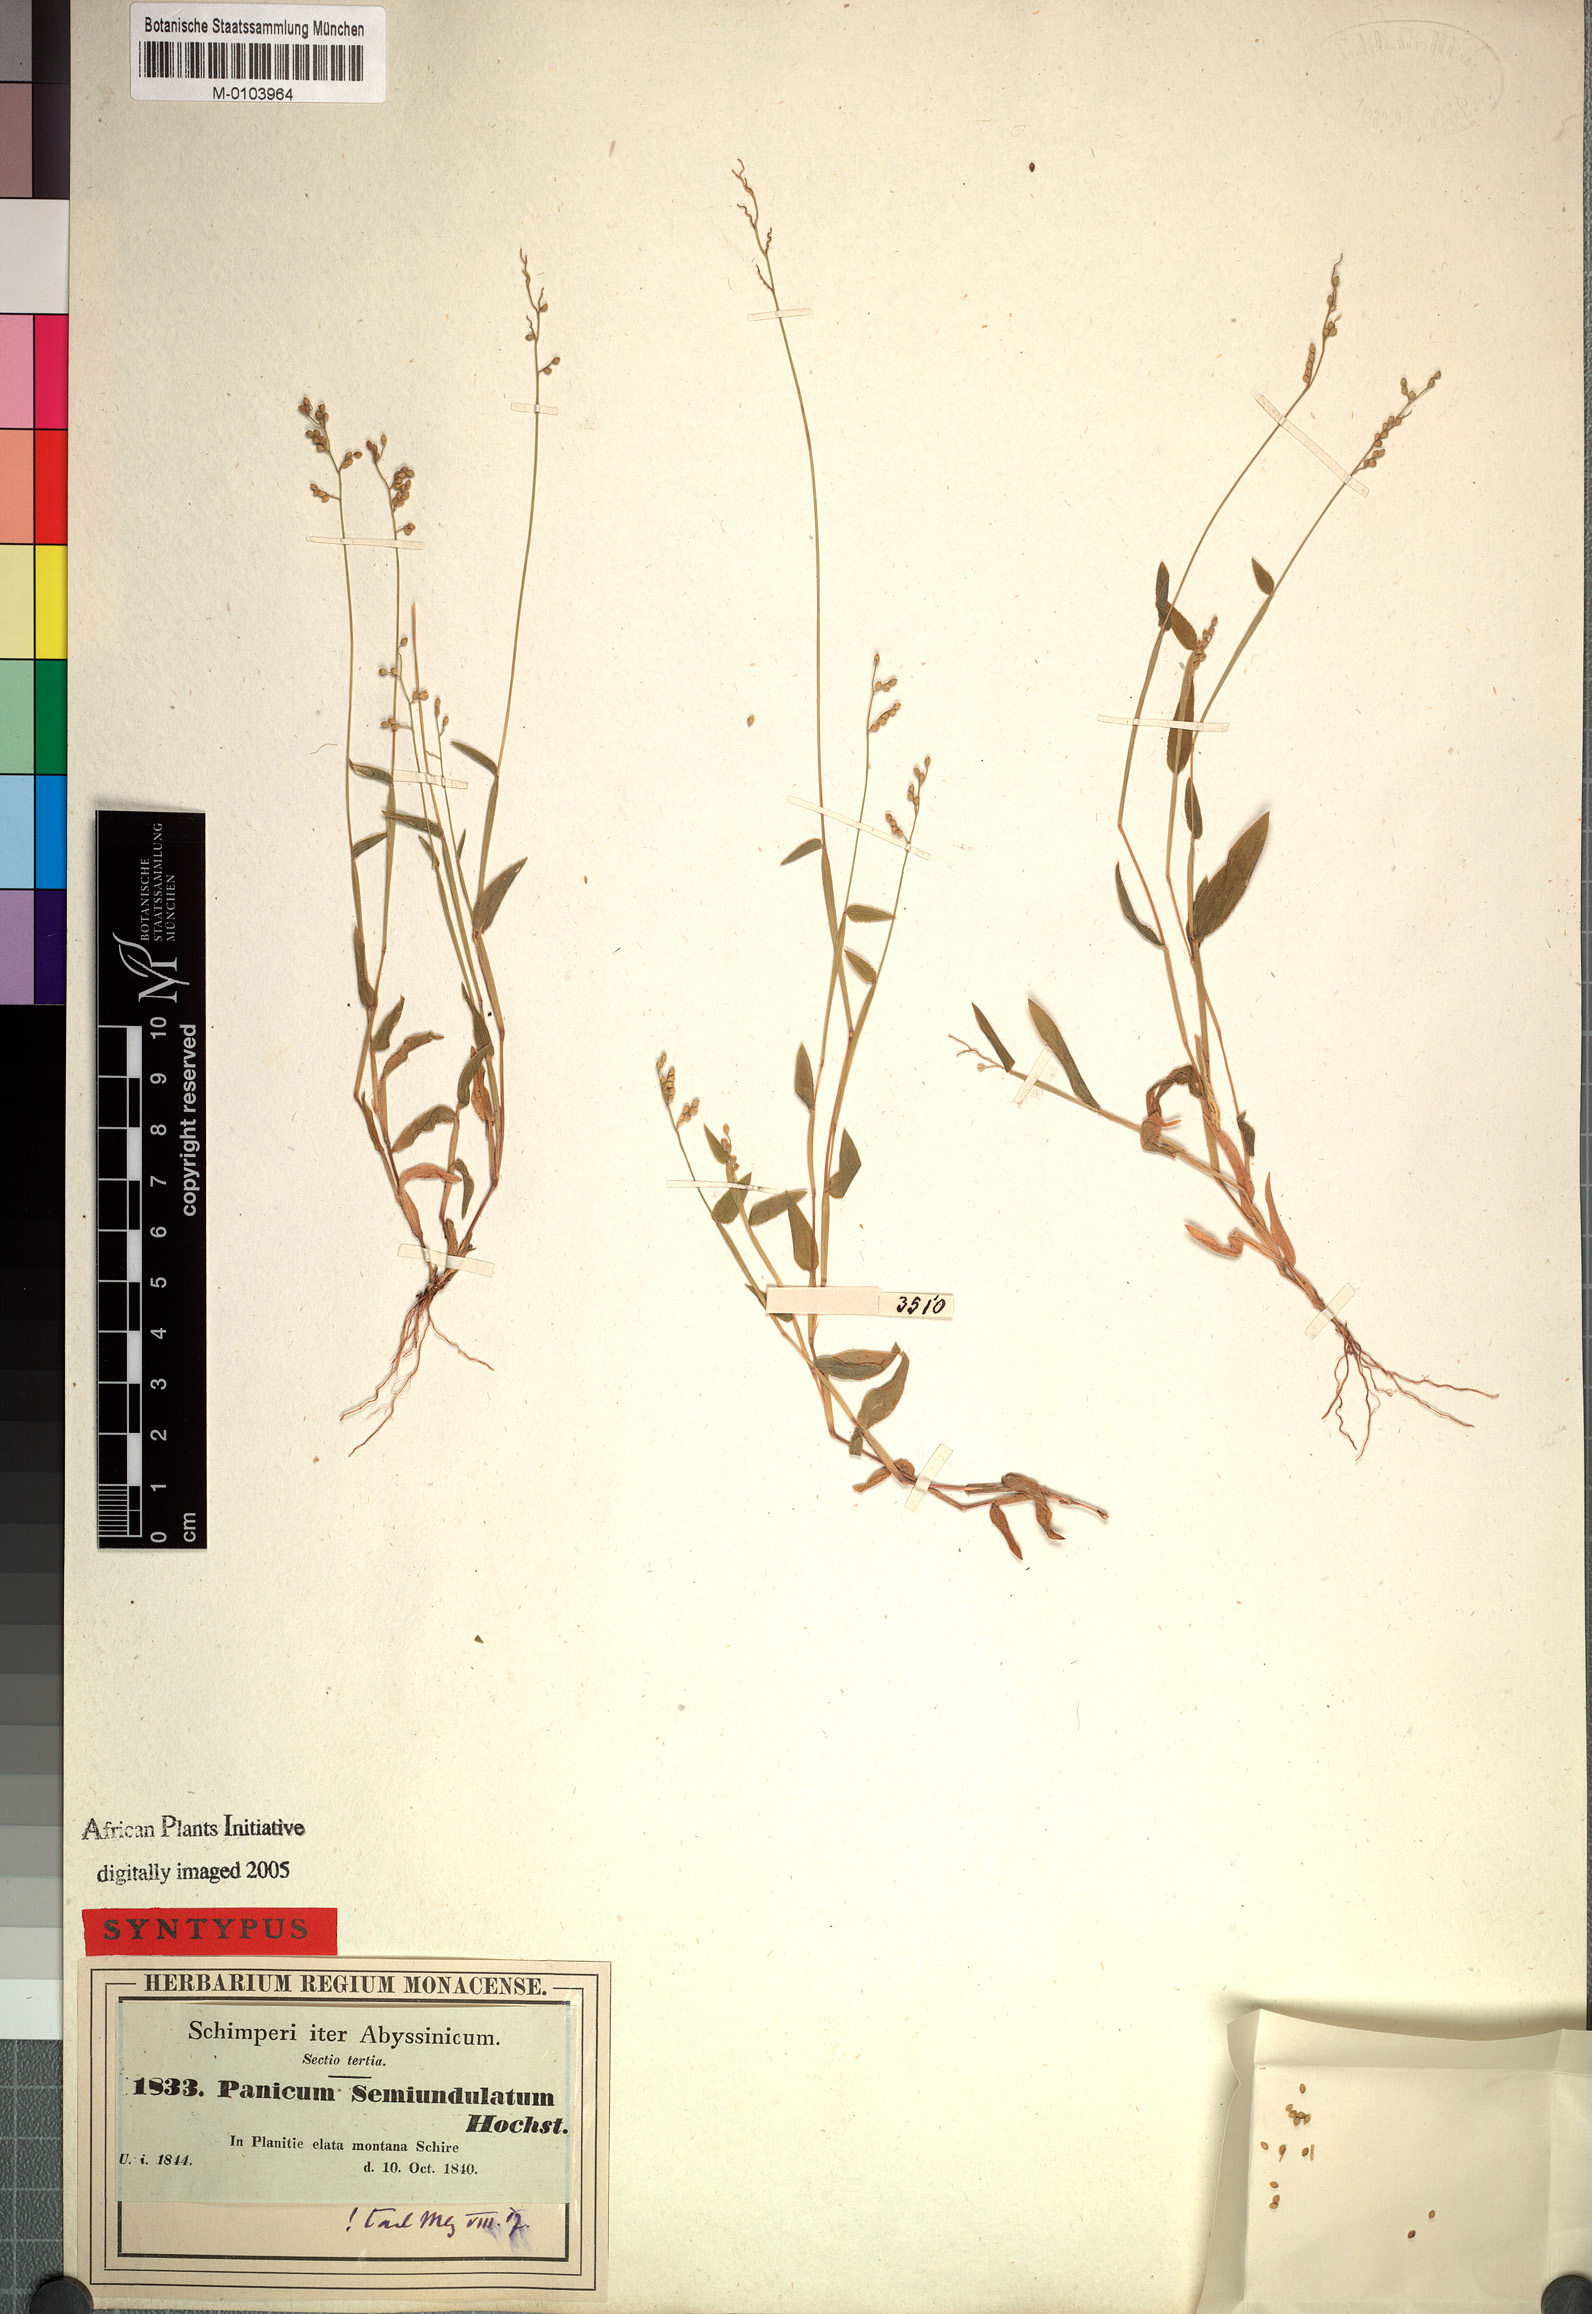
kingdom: Plantae
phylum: Tracheophyta
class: Liliopsida
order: Poales
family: Poaceae
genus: Urochloa
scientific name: Urochloa semiundulata
